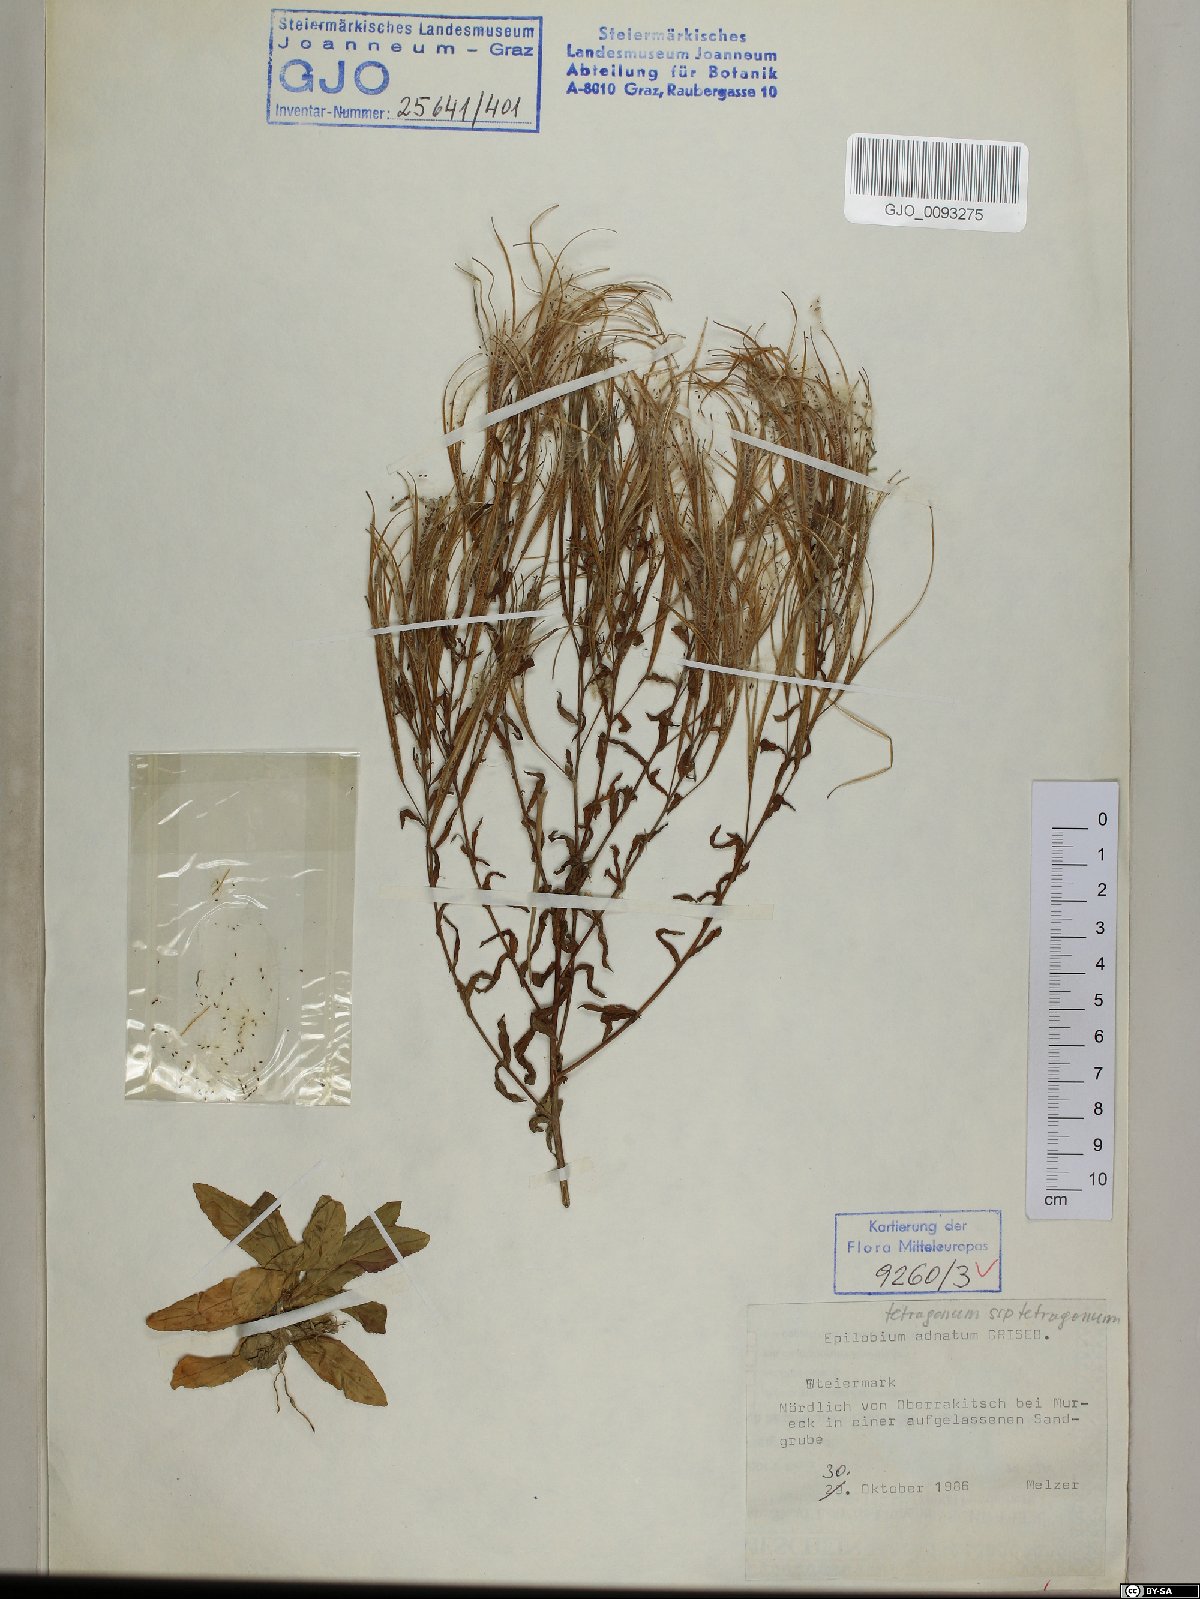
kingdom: Plantae
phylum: Tracheophyta
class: Magnoliopsida
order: Myrtales
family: Onagraceae
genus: Epilobium
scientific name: Epilobium tetragonum
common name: Square-stemmed willowherb
